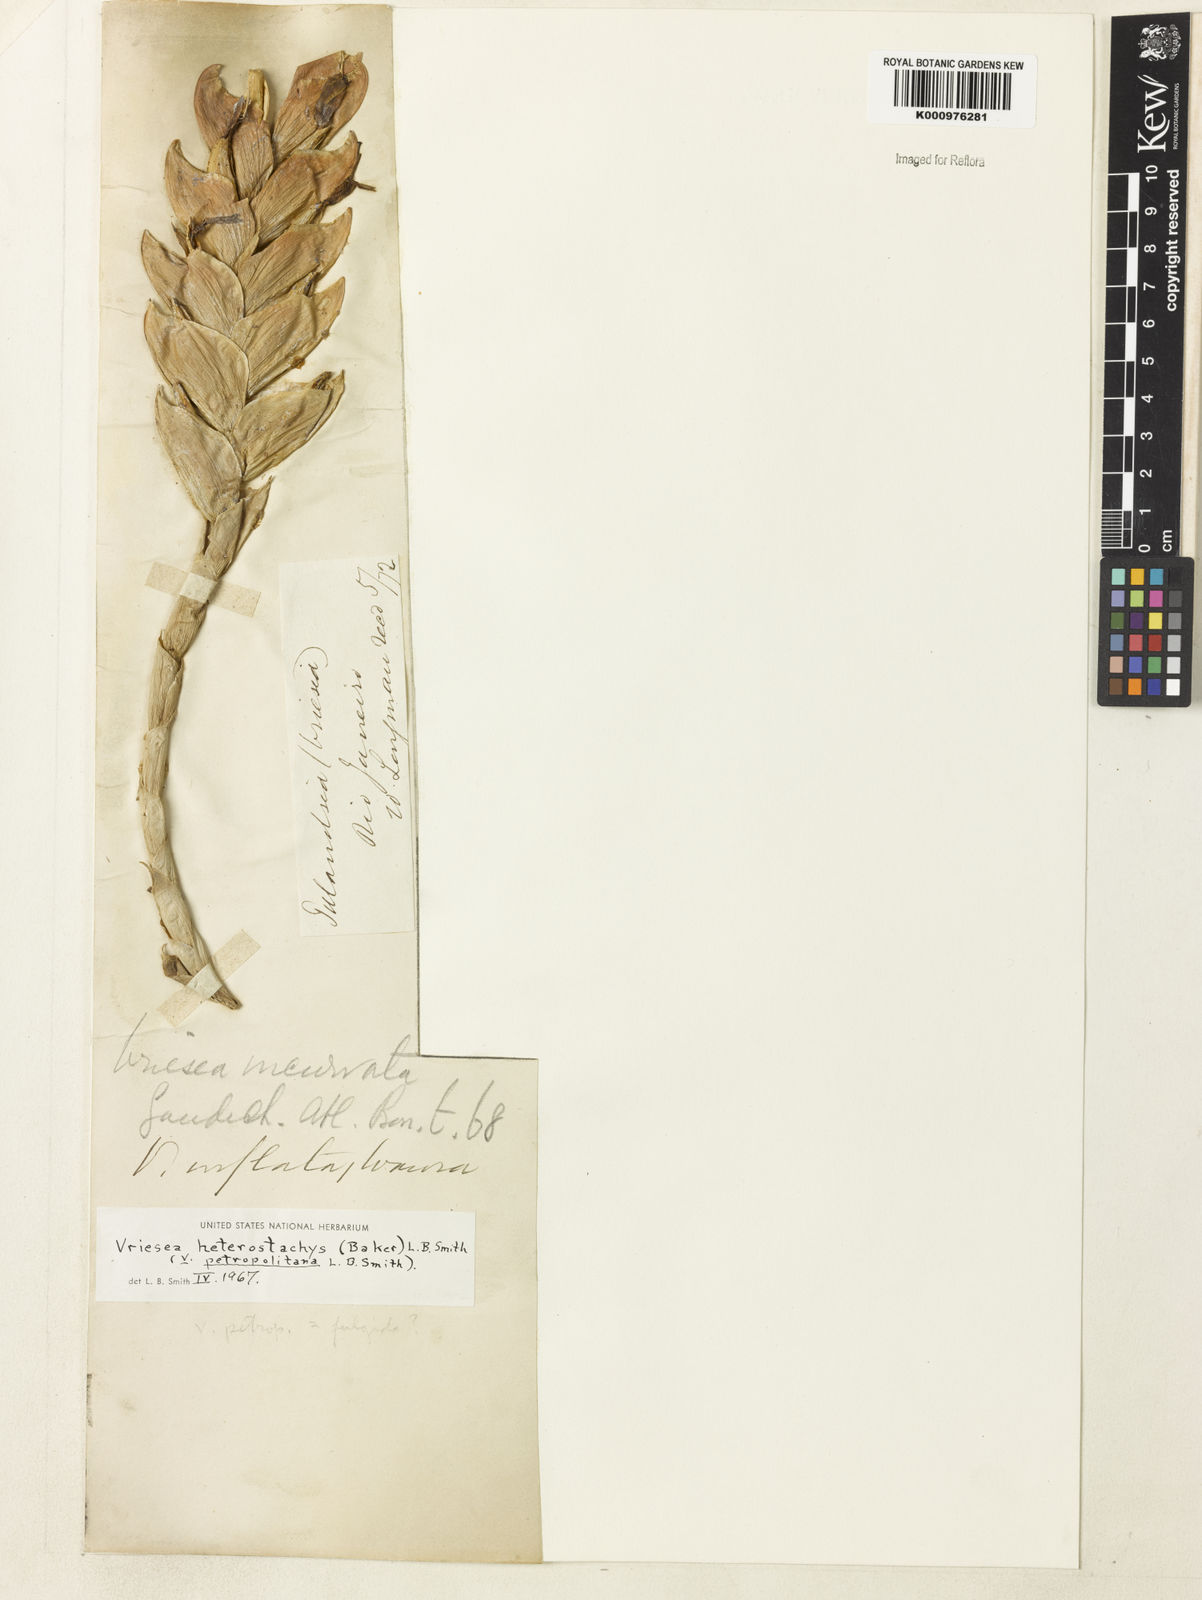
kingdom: Plantae
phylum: Tracheophyta
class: Liliopsida
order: Poales
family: Bromeliaceae
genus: Vriesea
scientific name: Vriesea heterostachys
